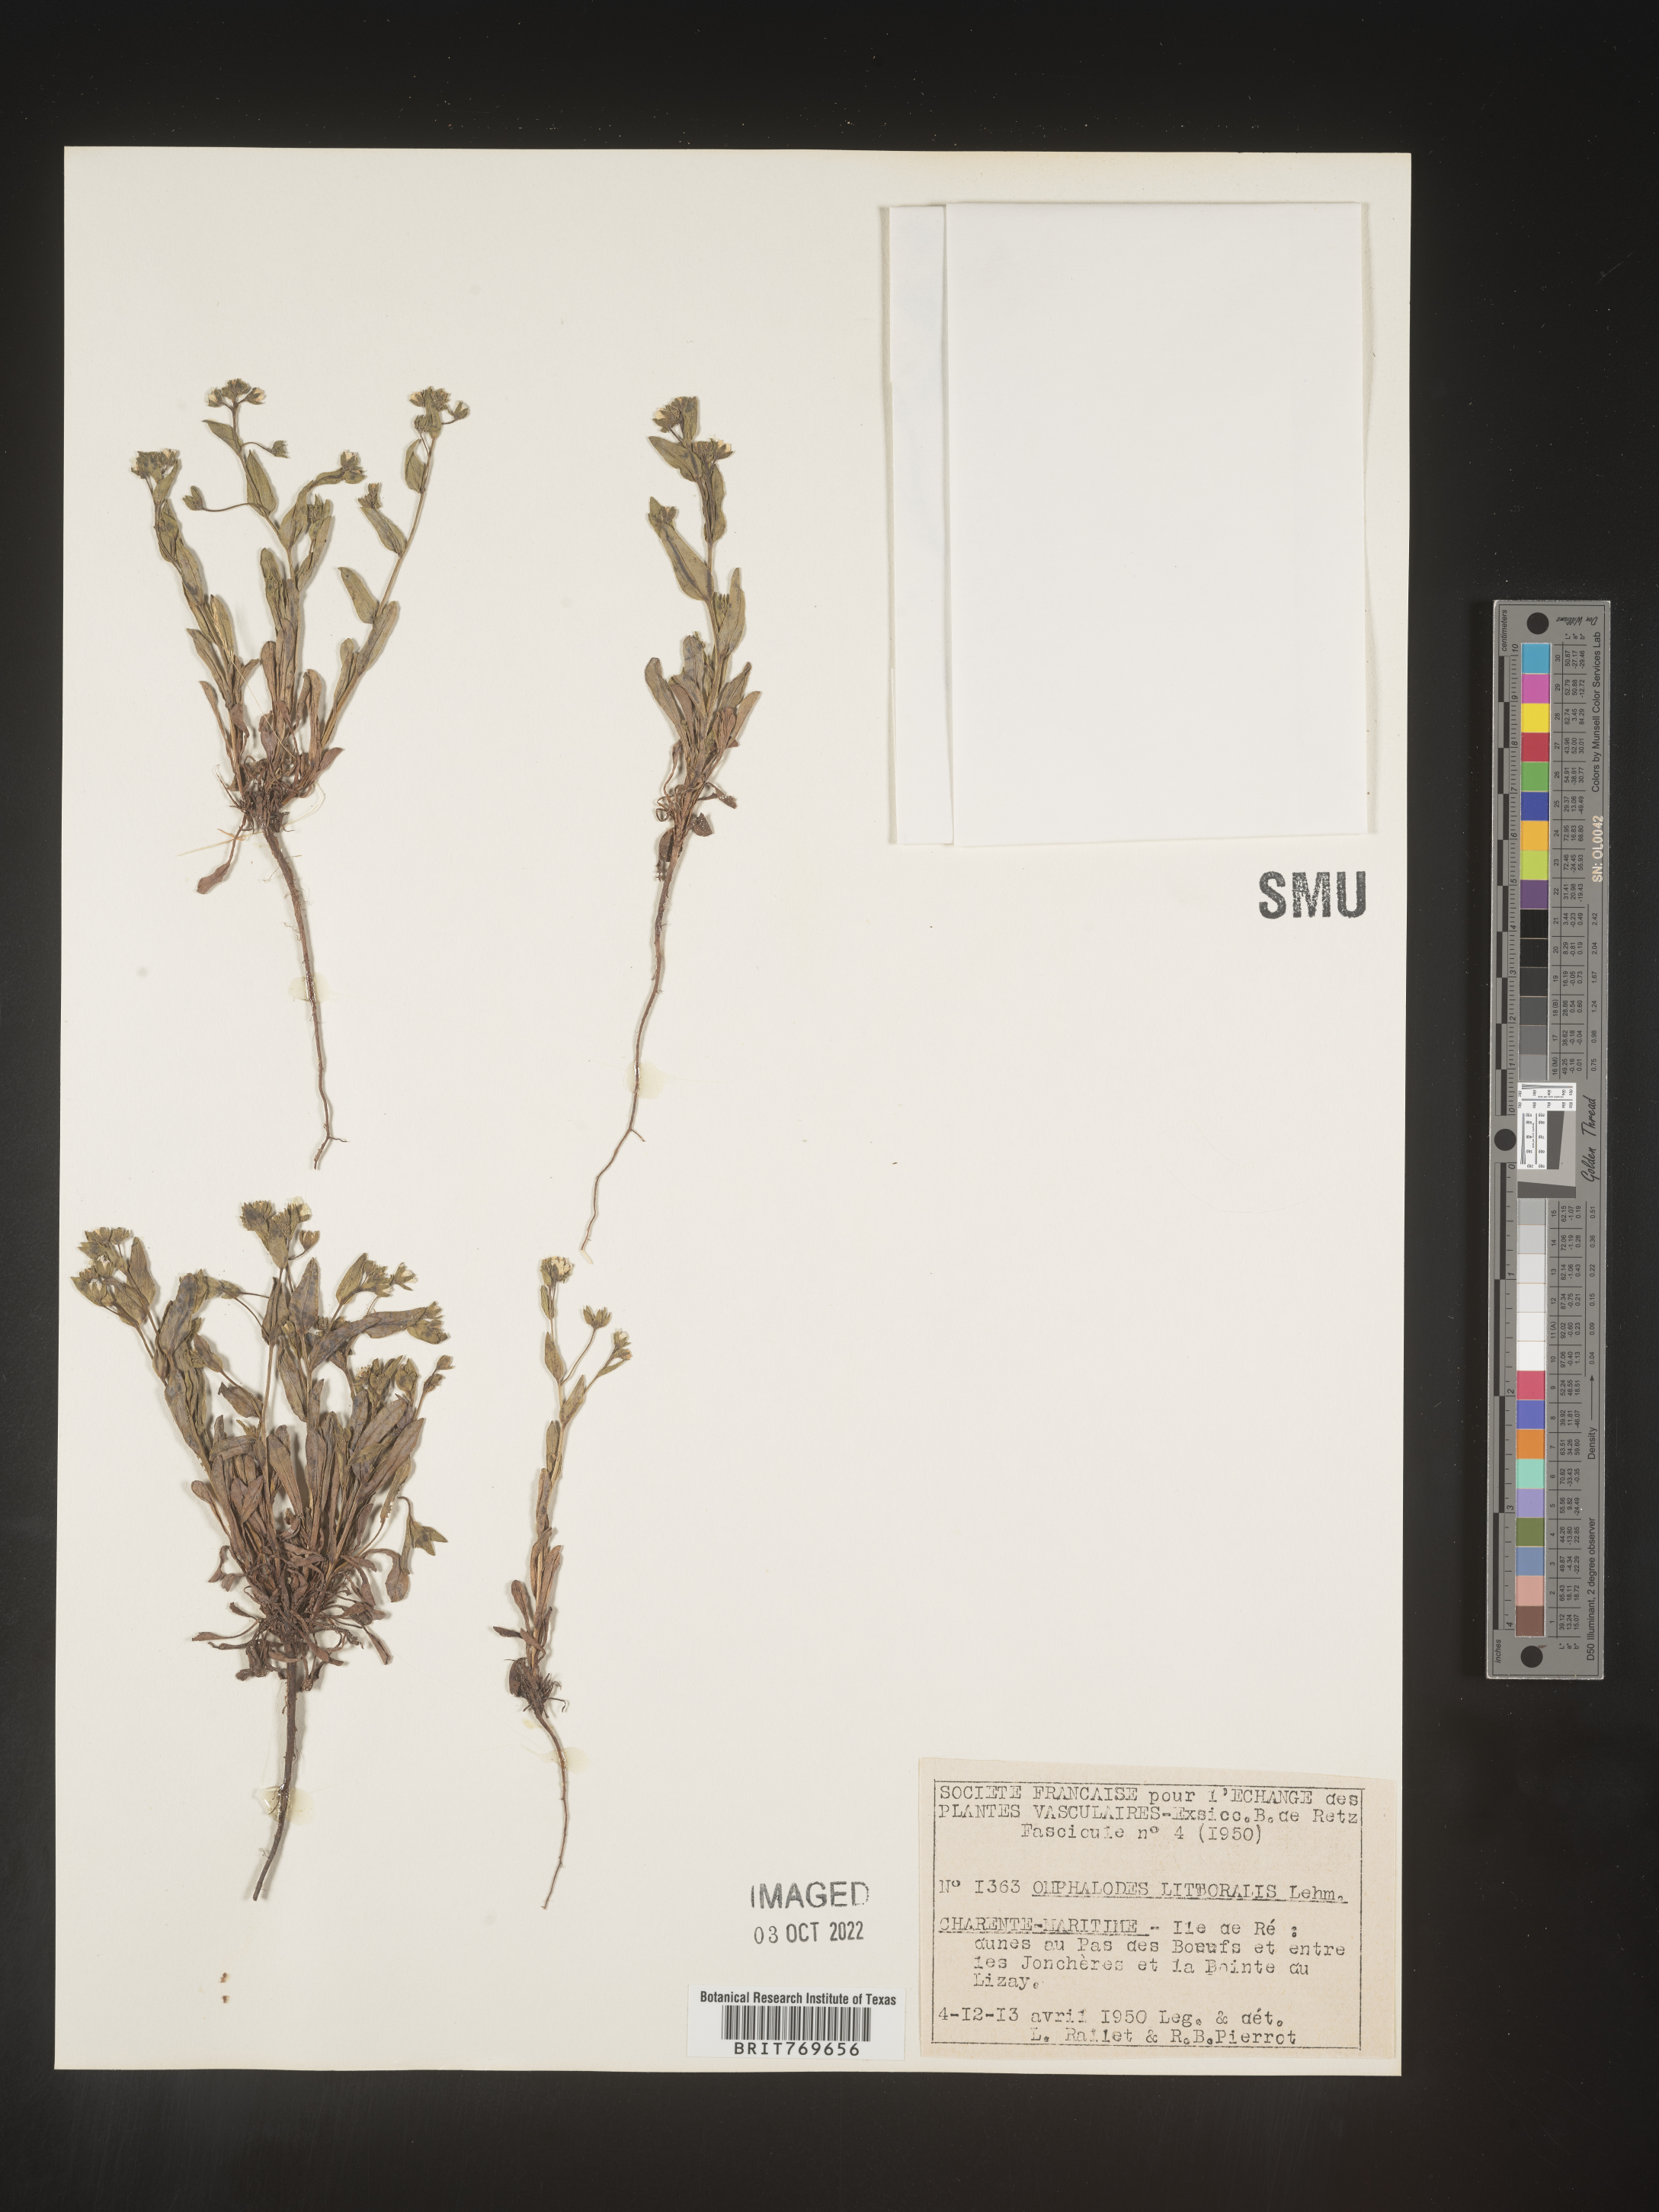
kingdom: Plantae
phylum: Tracheophyta
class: Magnoliopsida
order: Boraginales
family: Boraginaceae
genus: Omphalodes
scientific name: Omphalodes
